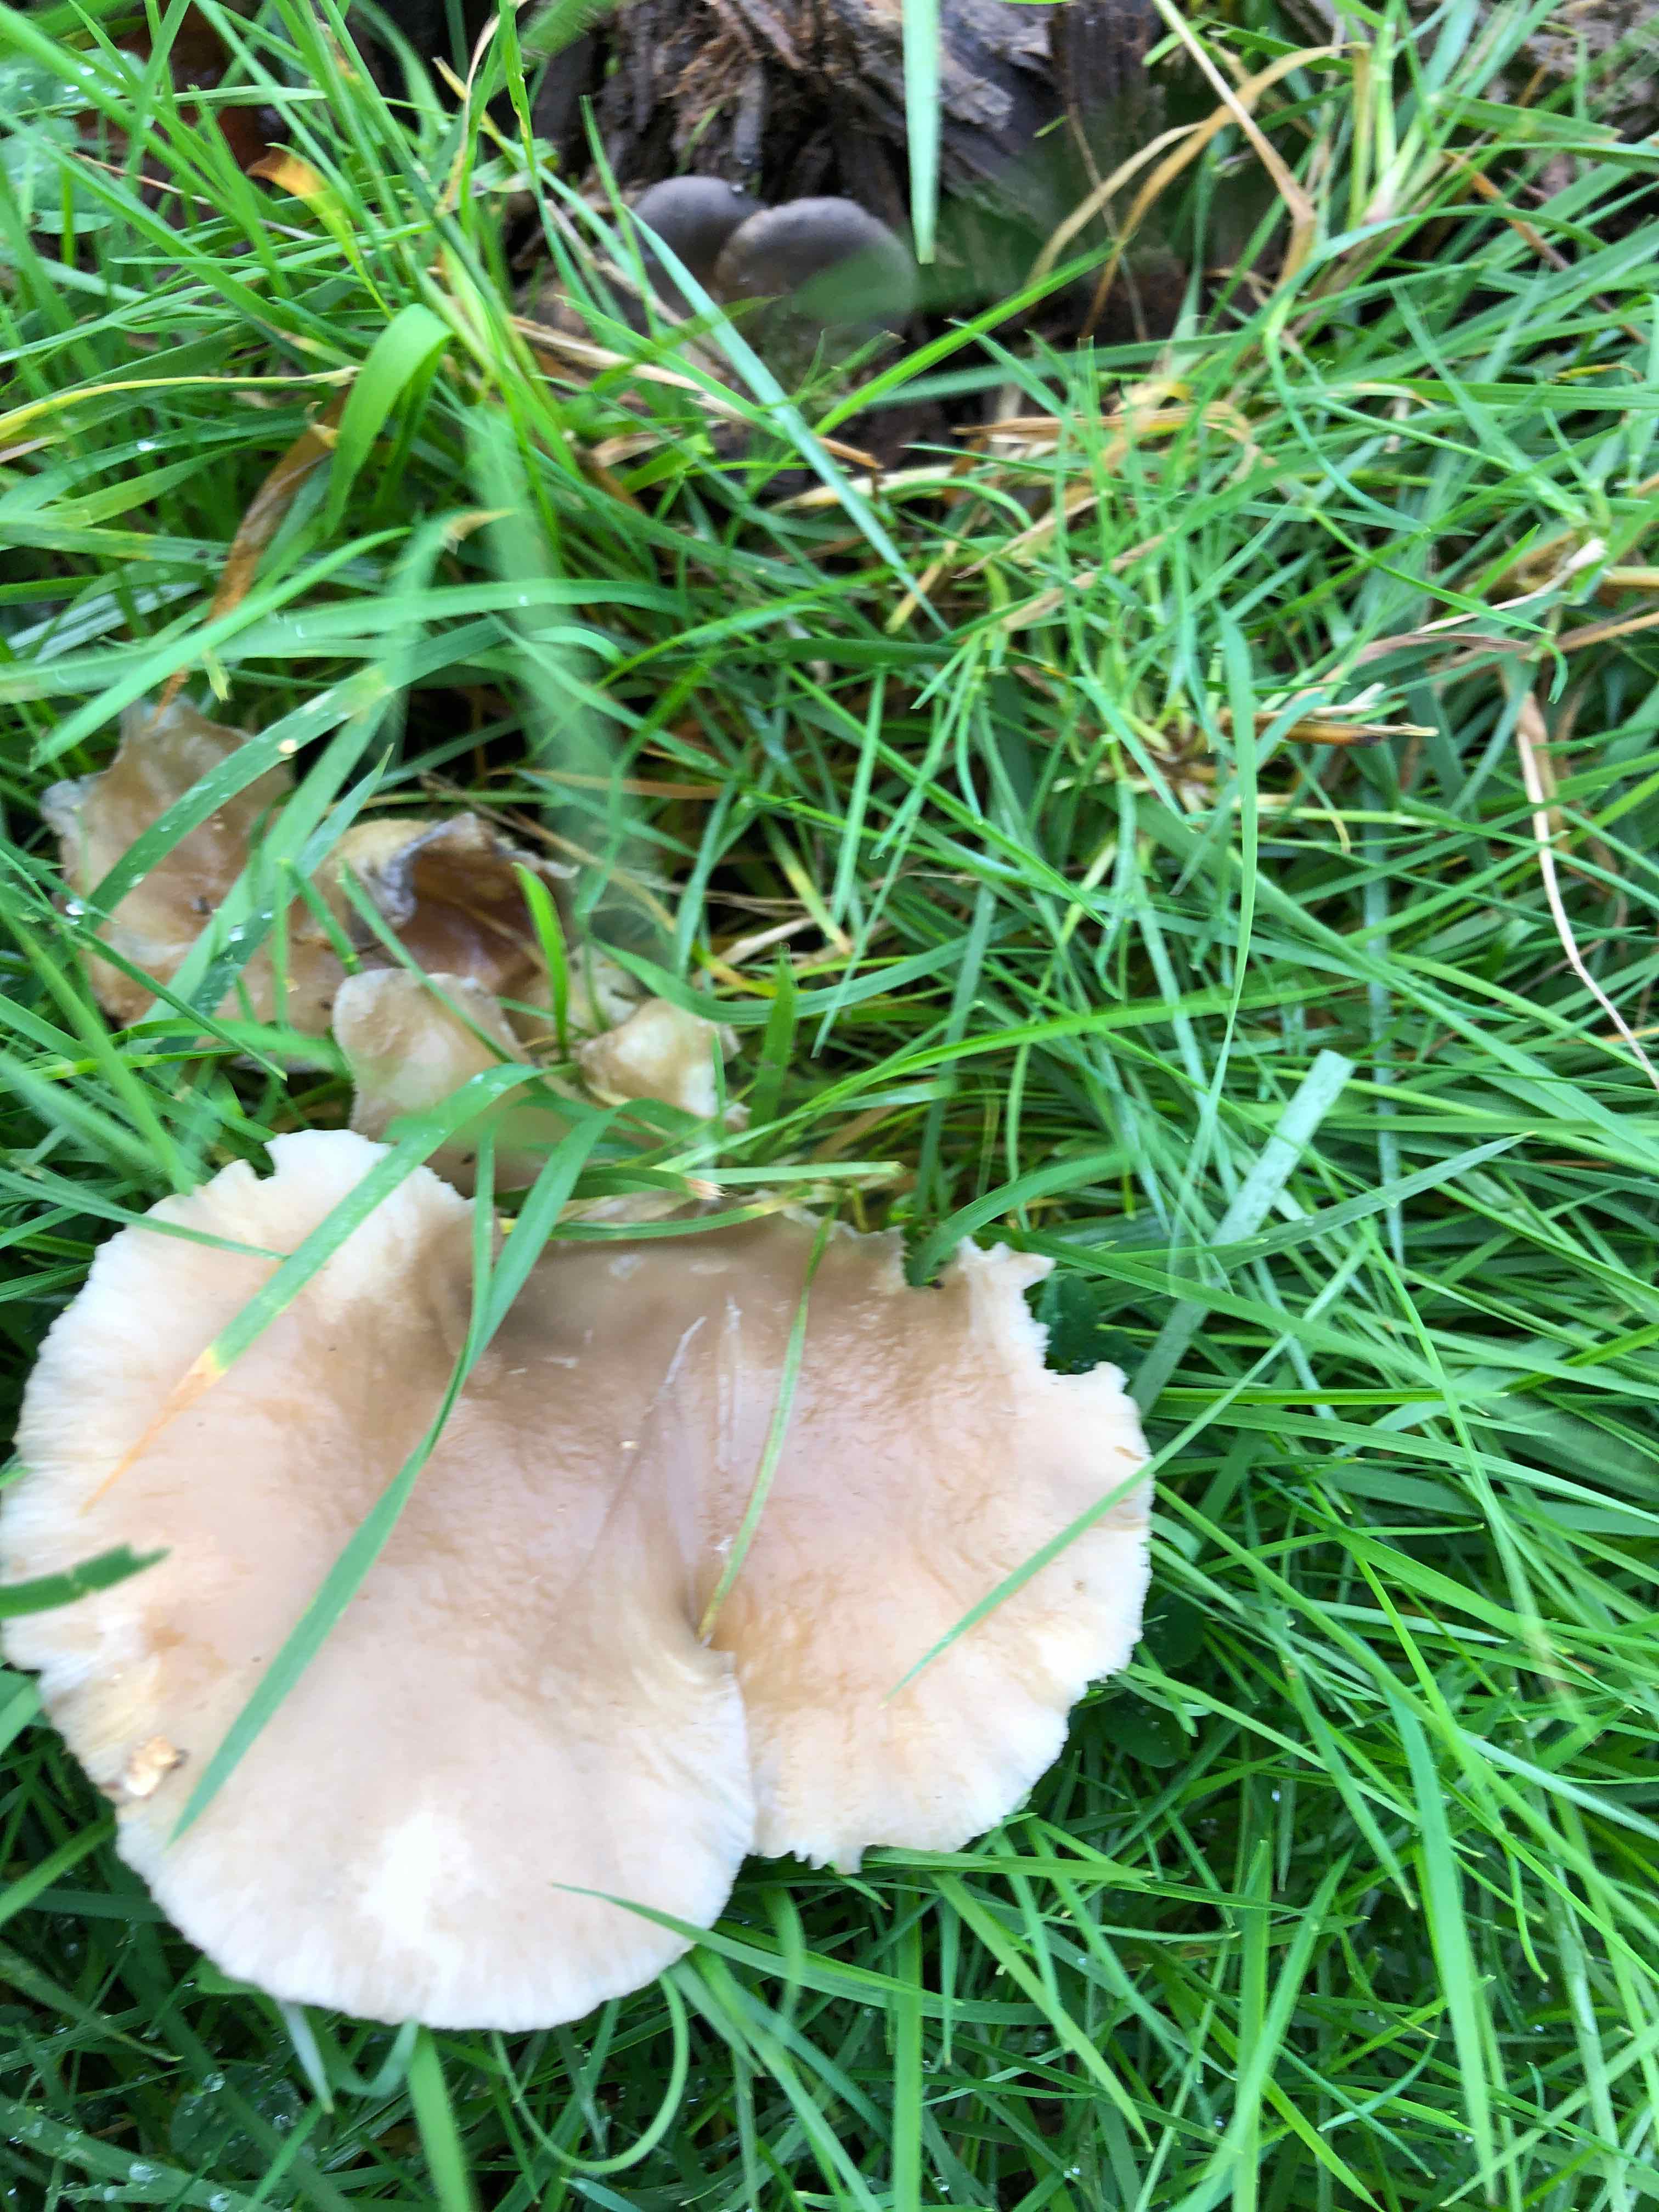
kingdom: Fungi
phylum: Basidiomycota
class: Agaricomycetes
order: Agaricales
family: Pleurotaceae
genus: Pleurotus
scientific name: Pleurotus ostreatus
